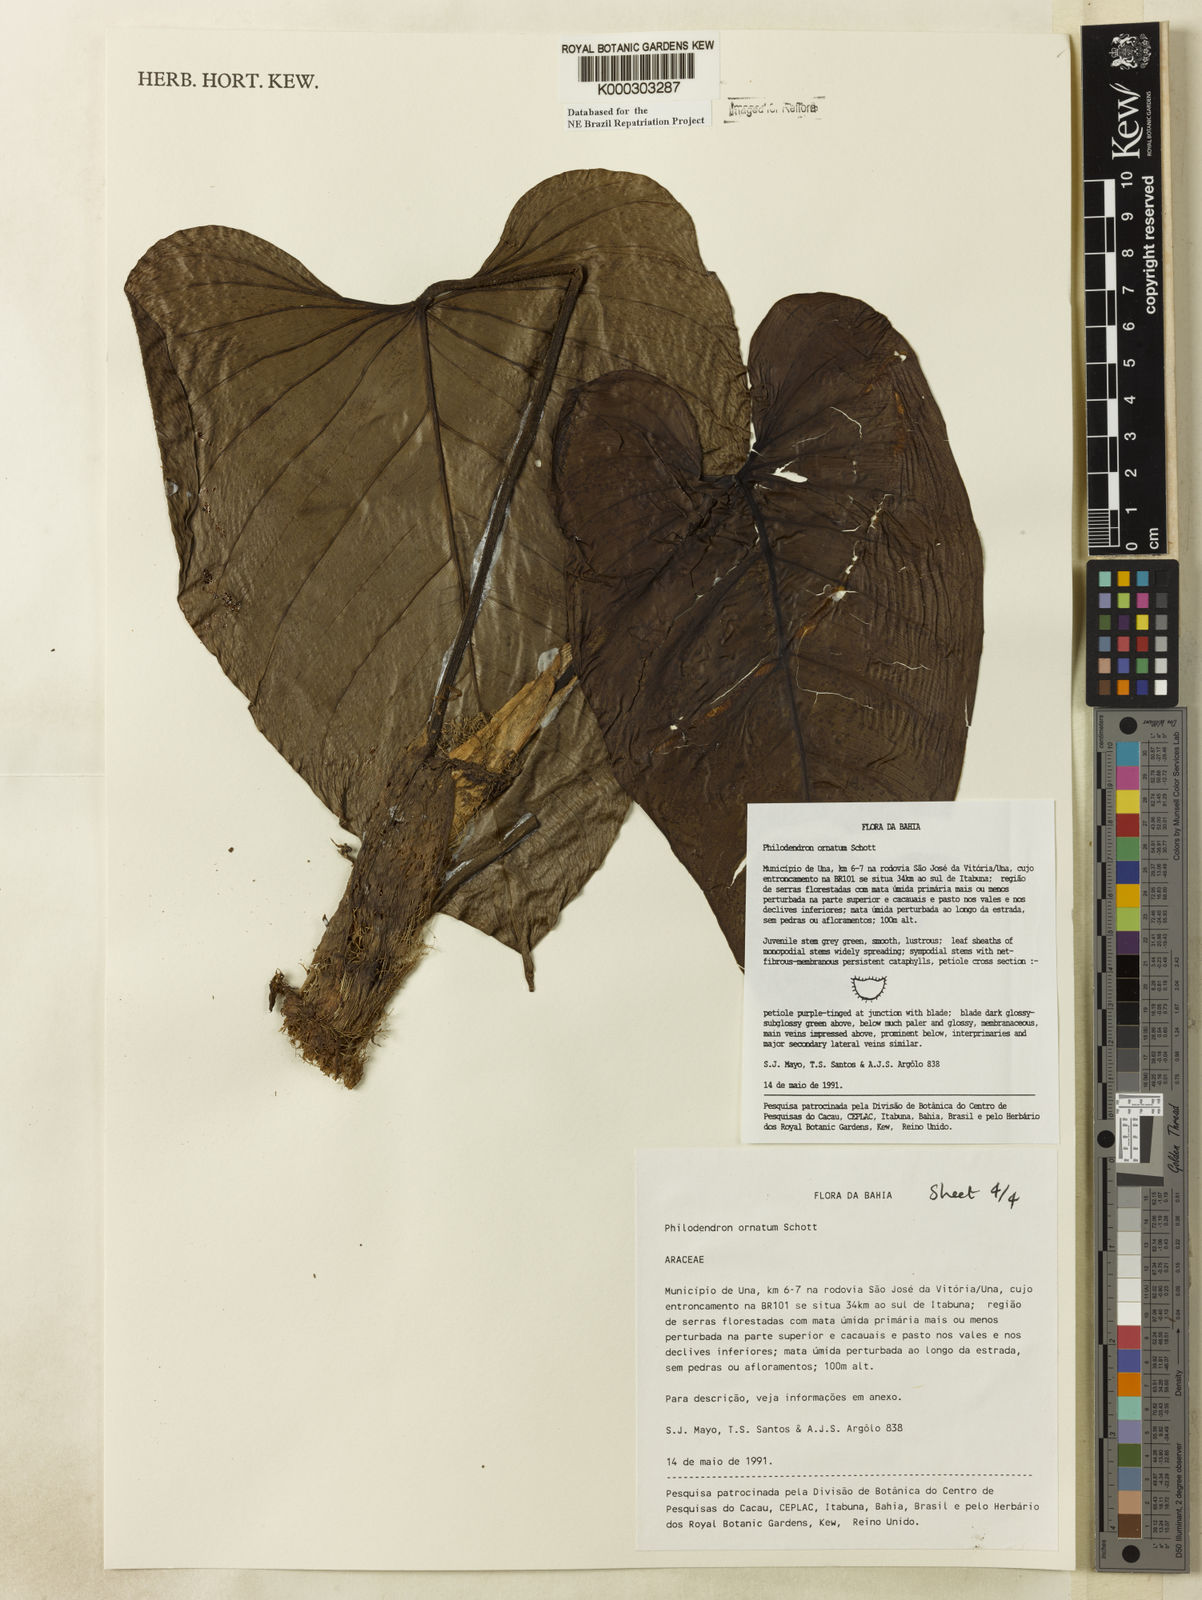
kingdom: Plantae
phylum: Tracheophyta
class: Liliopsida
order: Alismatales
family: Araceae
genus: Philodendron
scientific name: Philodendron ornatum
